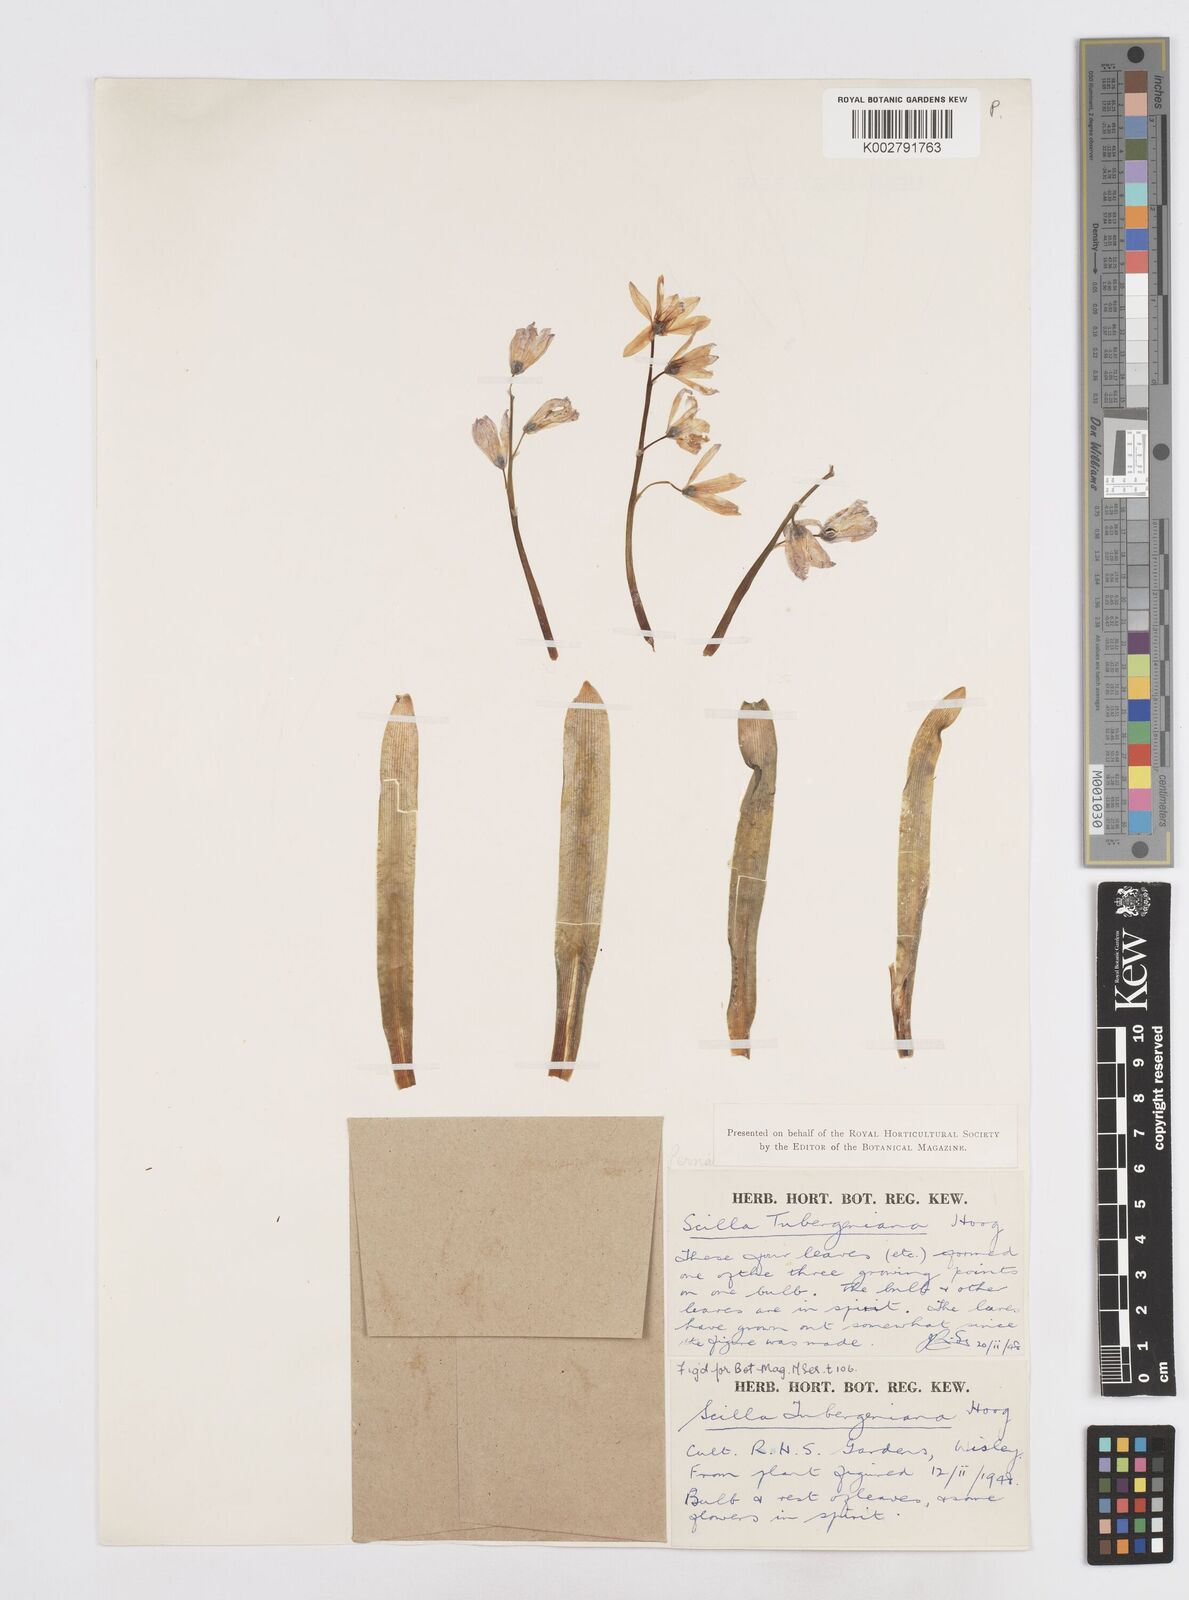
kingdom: Plantae
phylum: Tracheophyta
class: Liliopsida
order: Asparagales
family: Asparagaceae
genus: Scilla
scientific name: Scilla mischtschenkoana
